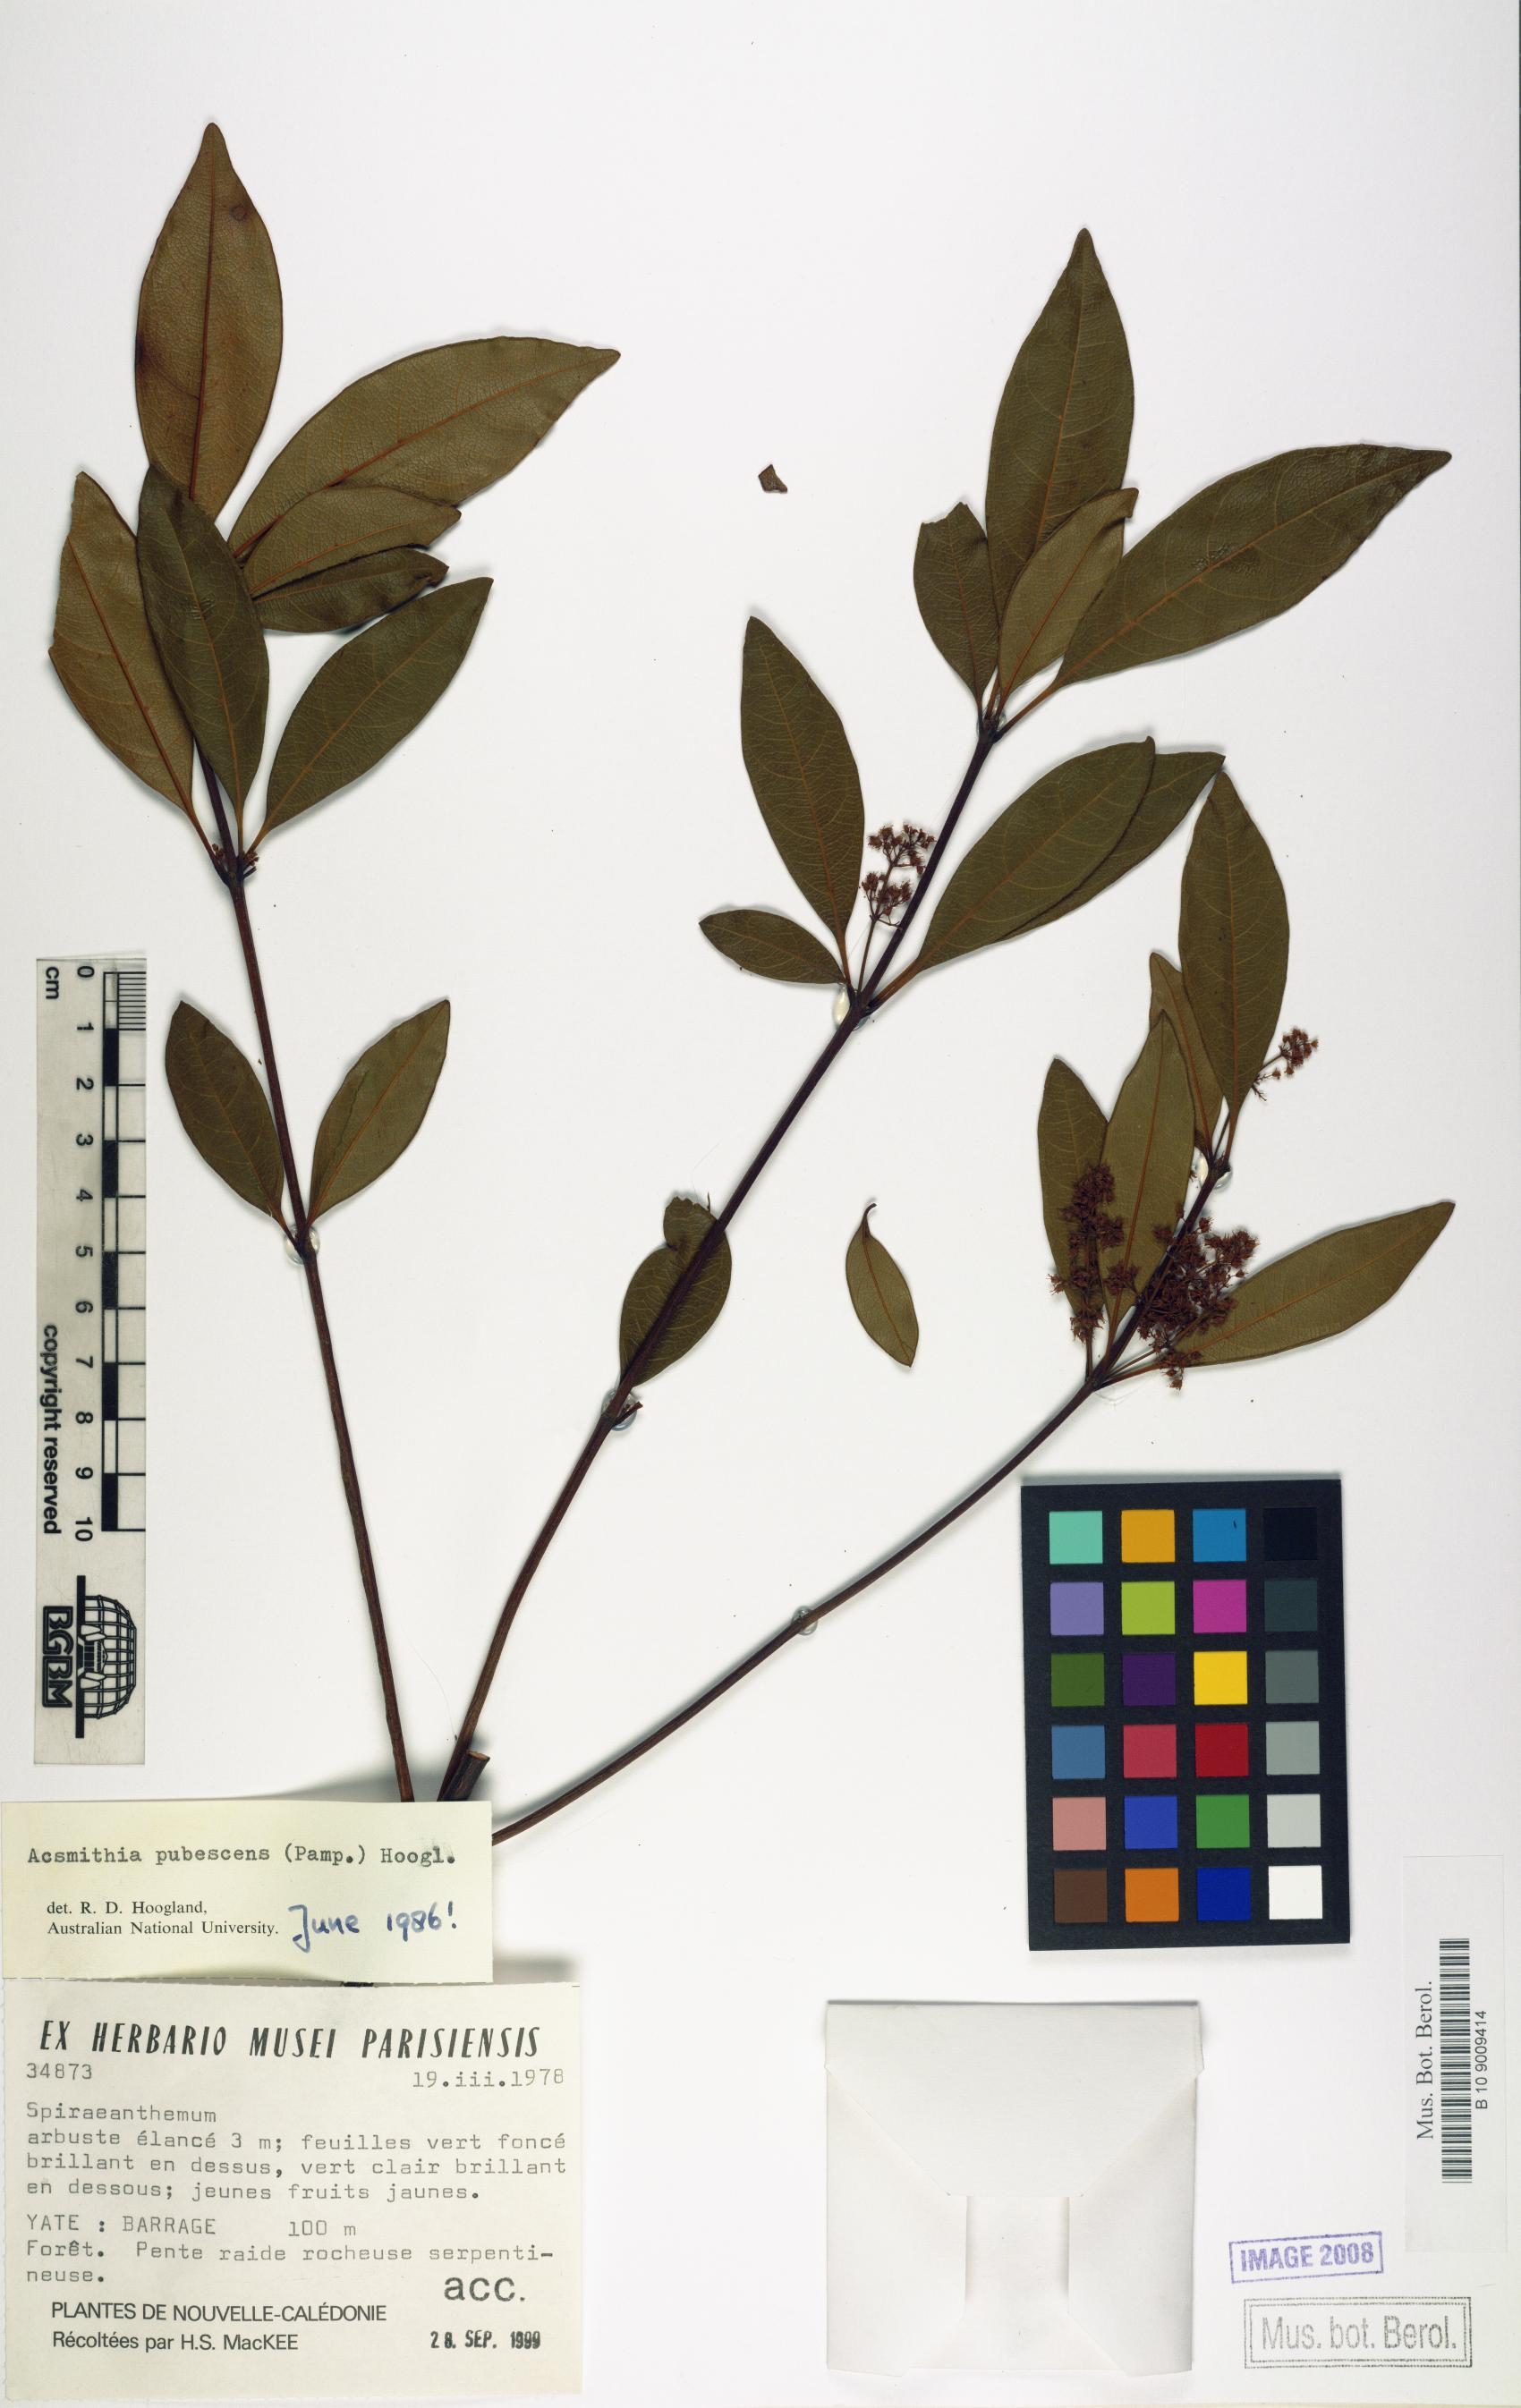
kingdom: Plantae
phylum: Tracheophyta
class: Magnoliopsida
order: Oxalidales
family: Cunoniaceae
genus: Spiraeanthemum
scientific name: Spiraeanthemum pubescens
